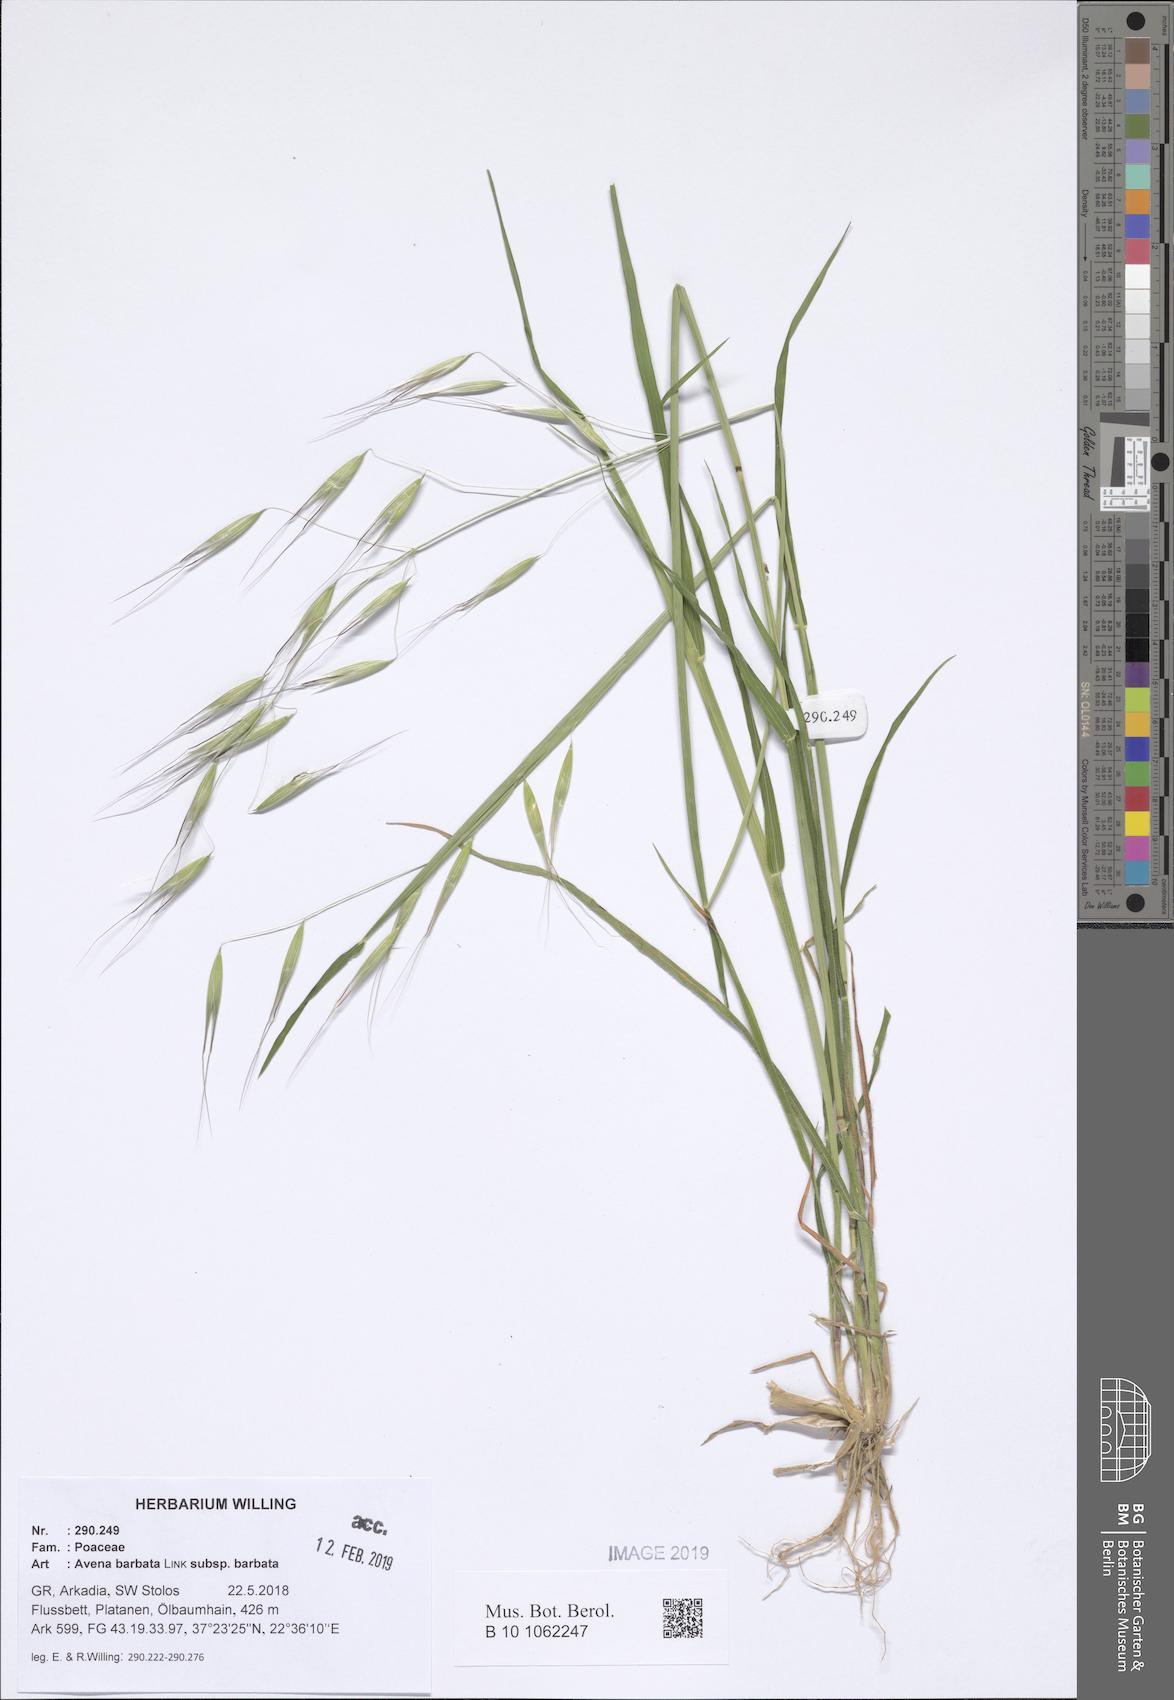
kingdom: Plantae
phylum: Tracheophyta
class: Liliopsida
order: Poales
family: Poaceae
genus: Avena
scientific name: Avena barbata
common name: Slender oat
